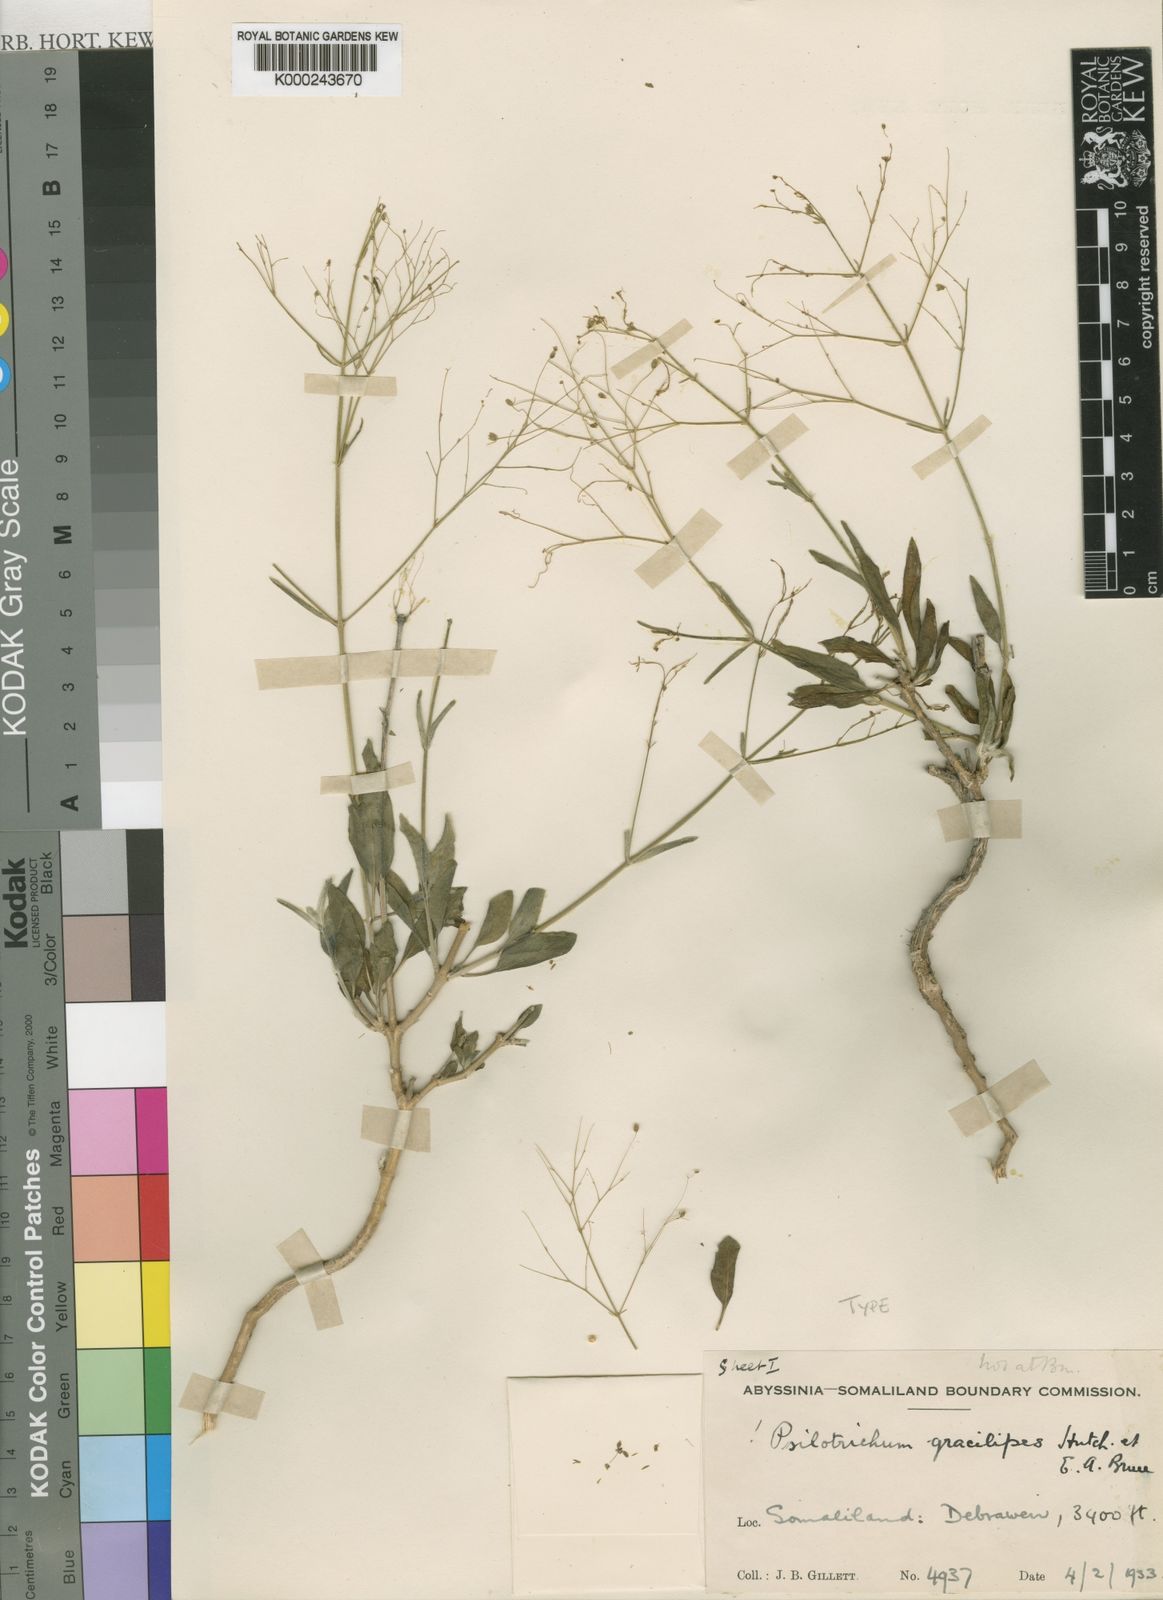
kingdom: Plantae
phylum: Tracheophyta
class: Magnoliopsida
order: Caryophyllales
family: Amaranthaceae
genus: Psilotrichum
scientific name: Psilotrichum gracilipes
